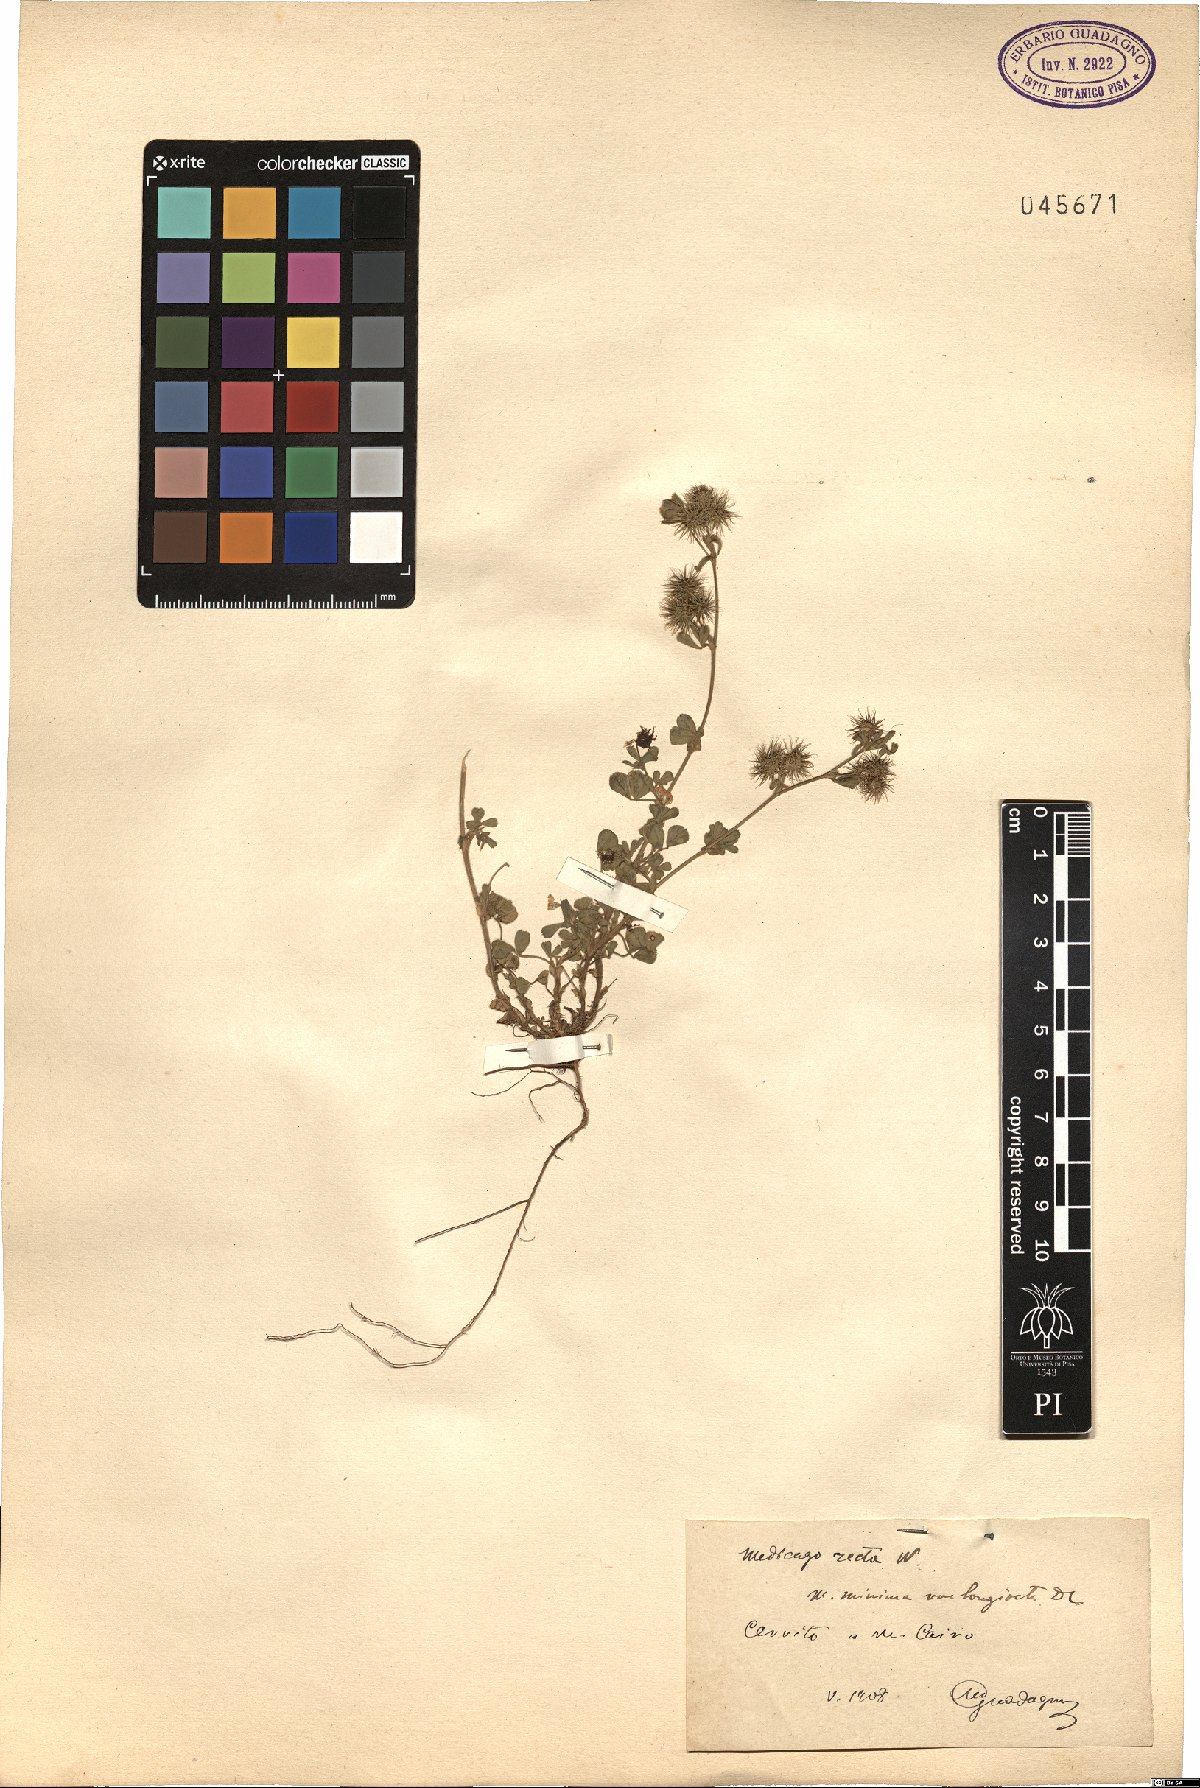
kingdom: Plantae
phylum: Tracheophyta
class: Magnoliopsida
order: Fabales
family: Fabaceae
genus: Medicago
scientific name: Medicago minima
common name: Little bur-clover
